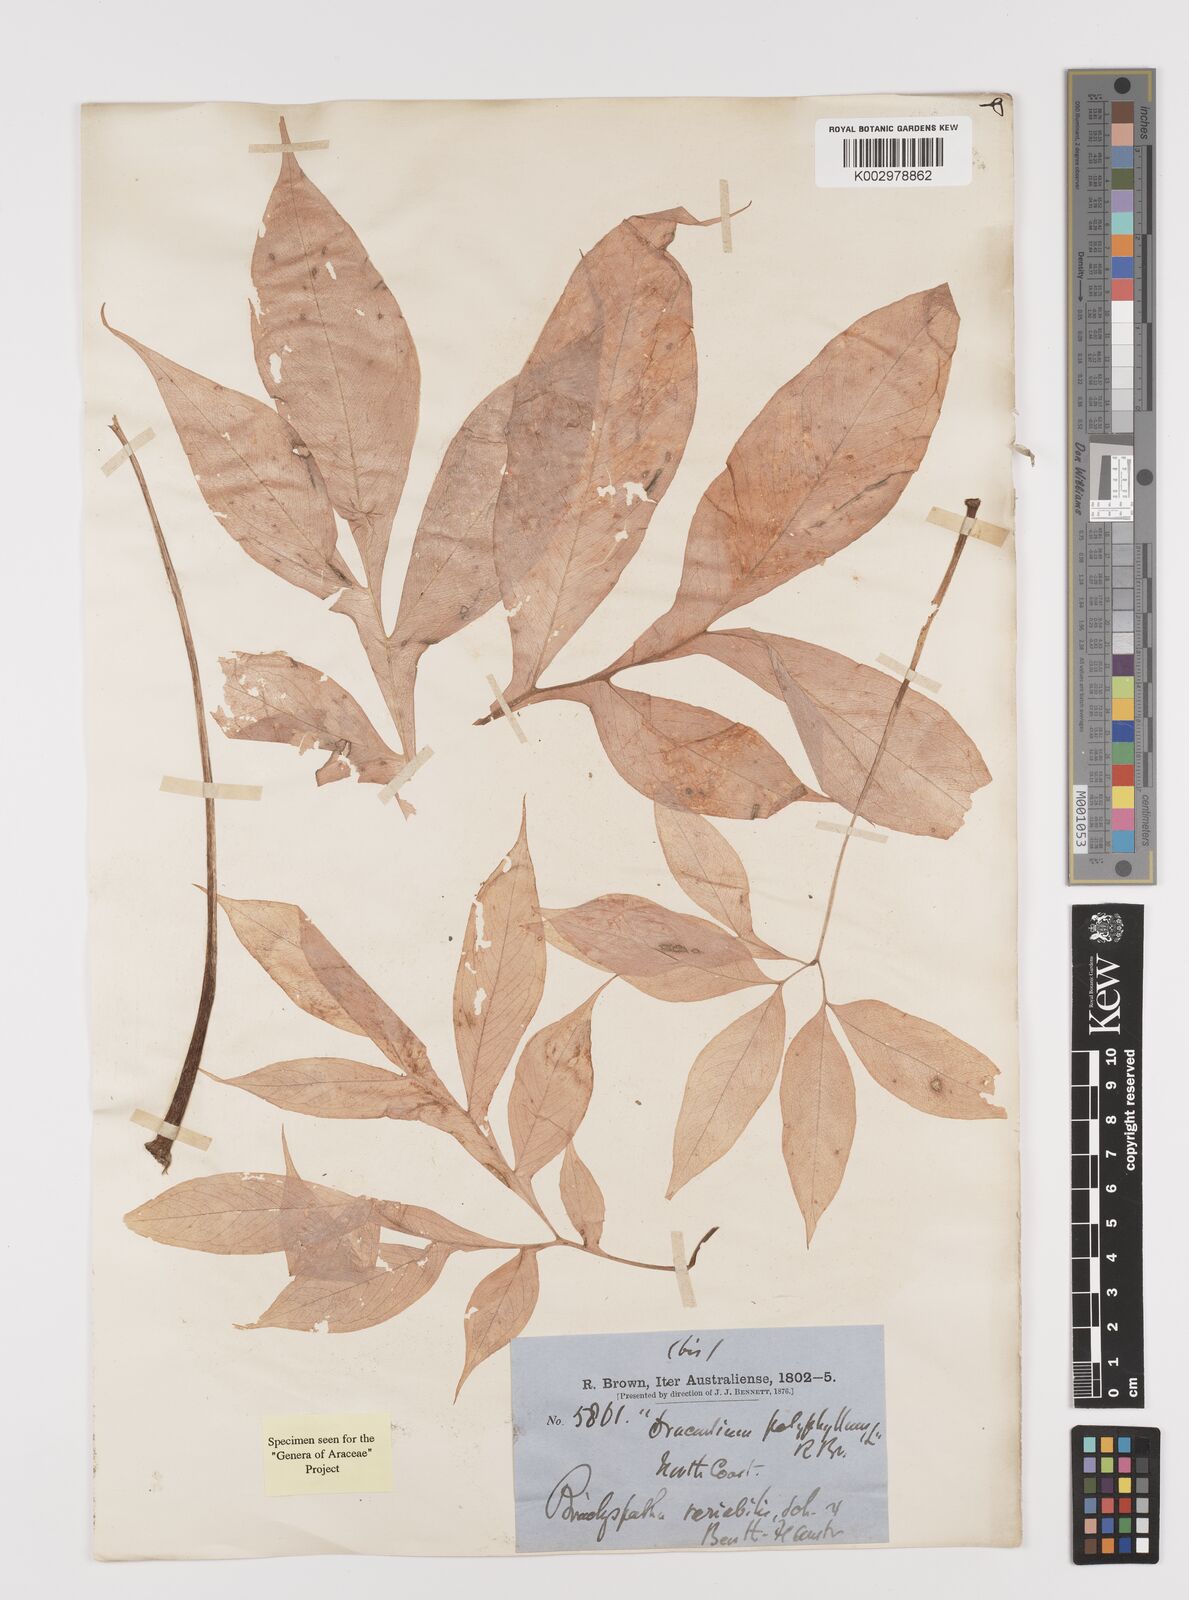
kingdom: Plantae
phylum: Tracheophyta
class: Liliopsida
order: Alismatales
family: Araceae
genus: Amorphophallus
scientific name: Amorphophallus galbra
